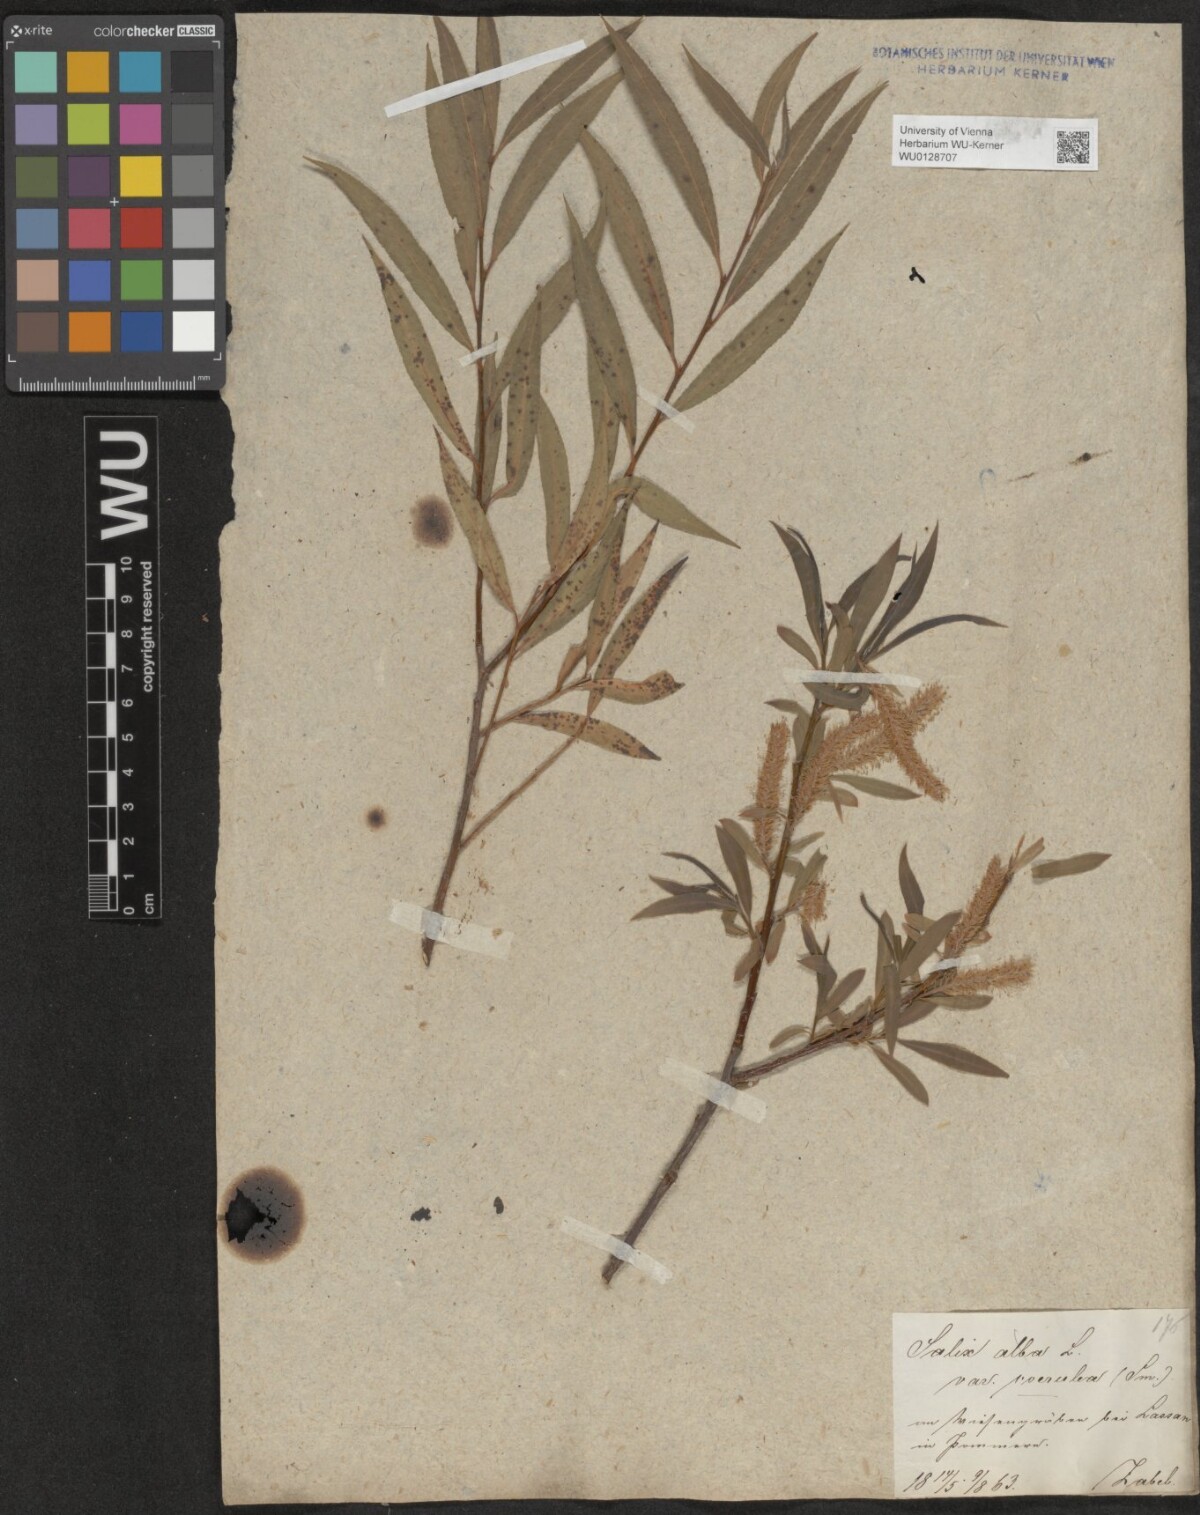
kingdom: Plantae
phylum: Tracheophyta
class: Magnoliopsida
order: Malpighiales
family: Salicaceae
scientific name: Salicaceae
